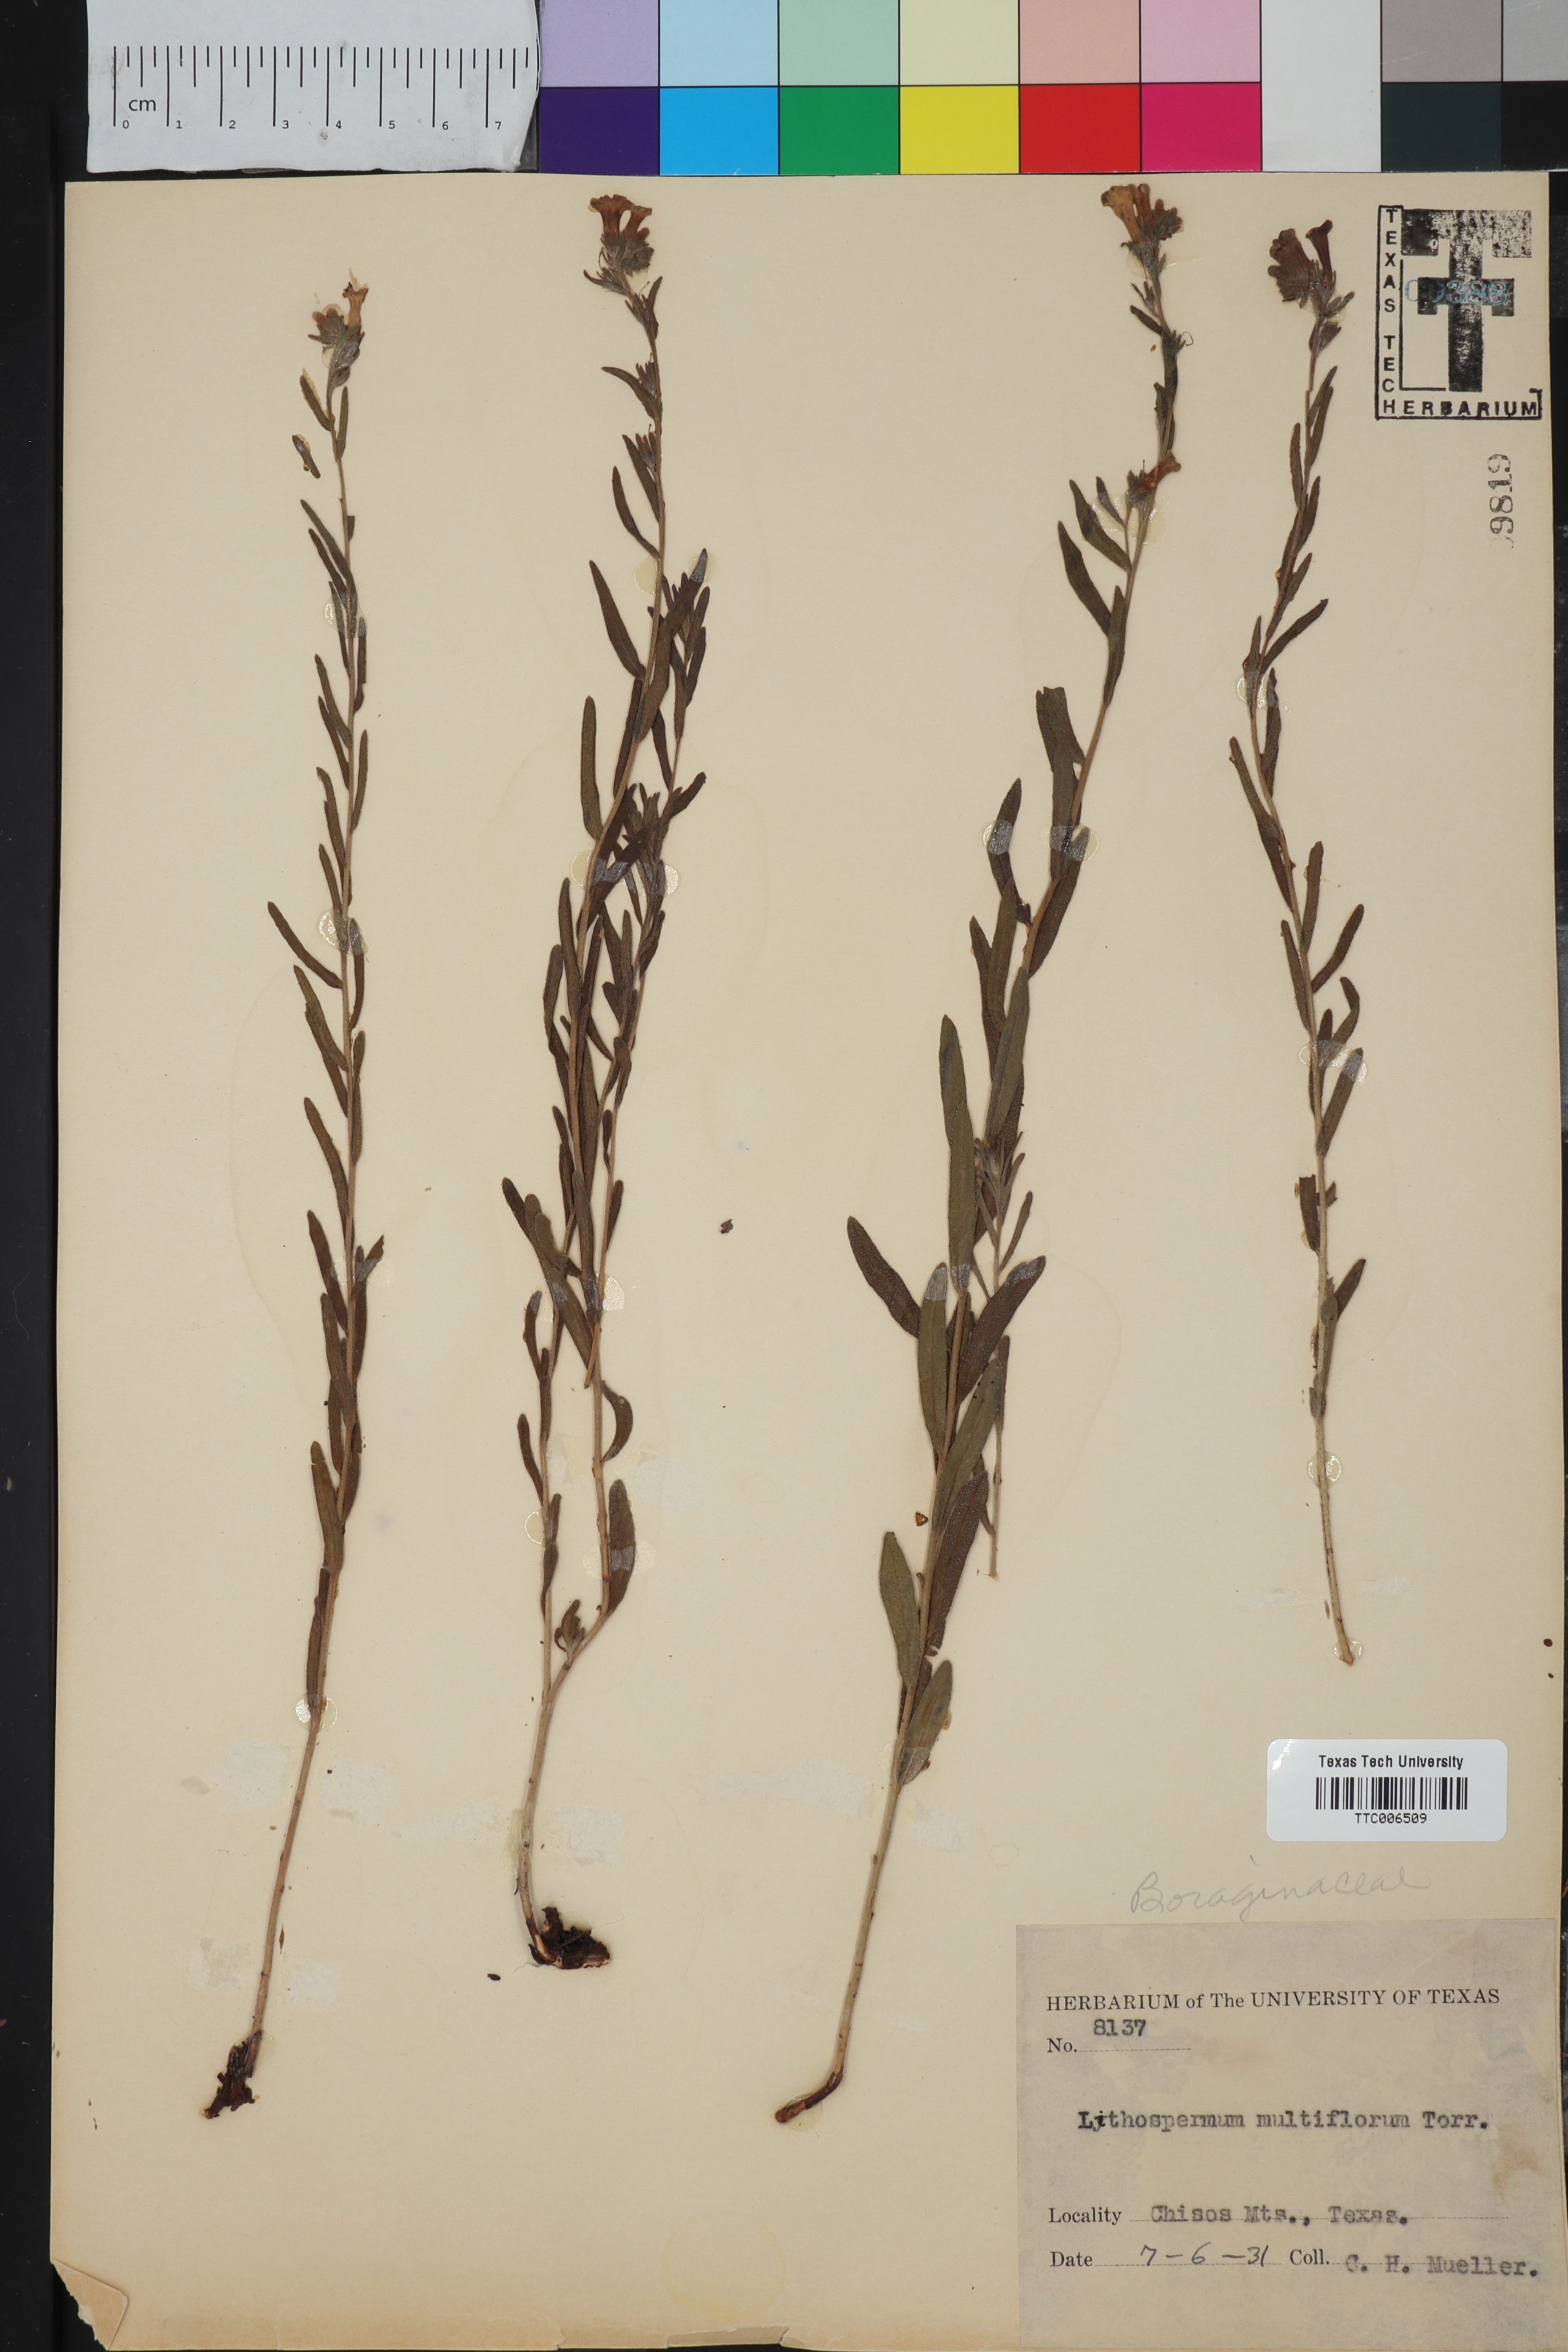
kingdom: Plantae
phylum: Tracheophyta
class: Magnoliopsida
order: Boraginales
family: Boraginaceae
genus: Lithospermum
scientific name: Lithospermum multiflorum
